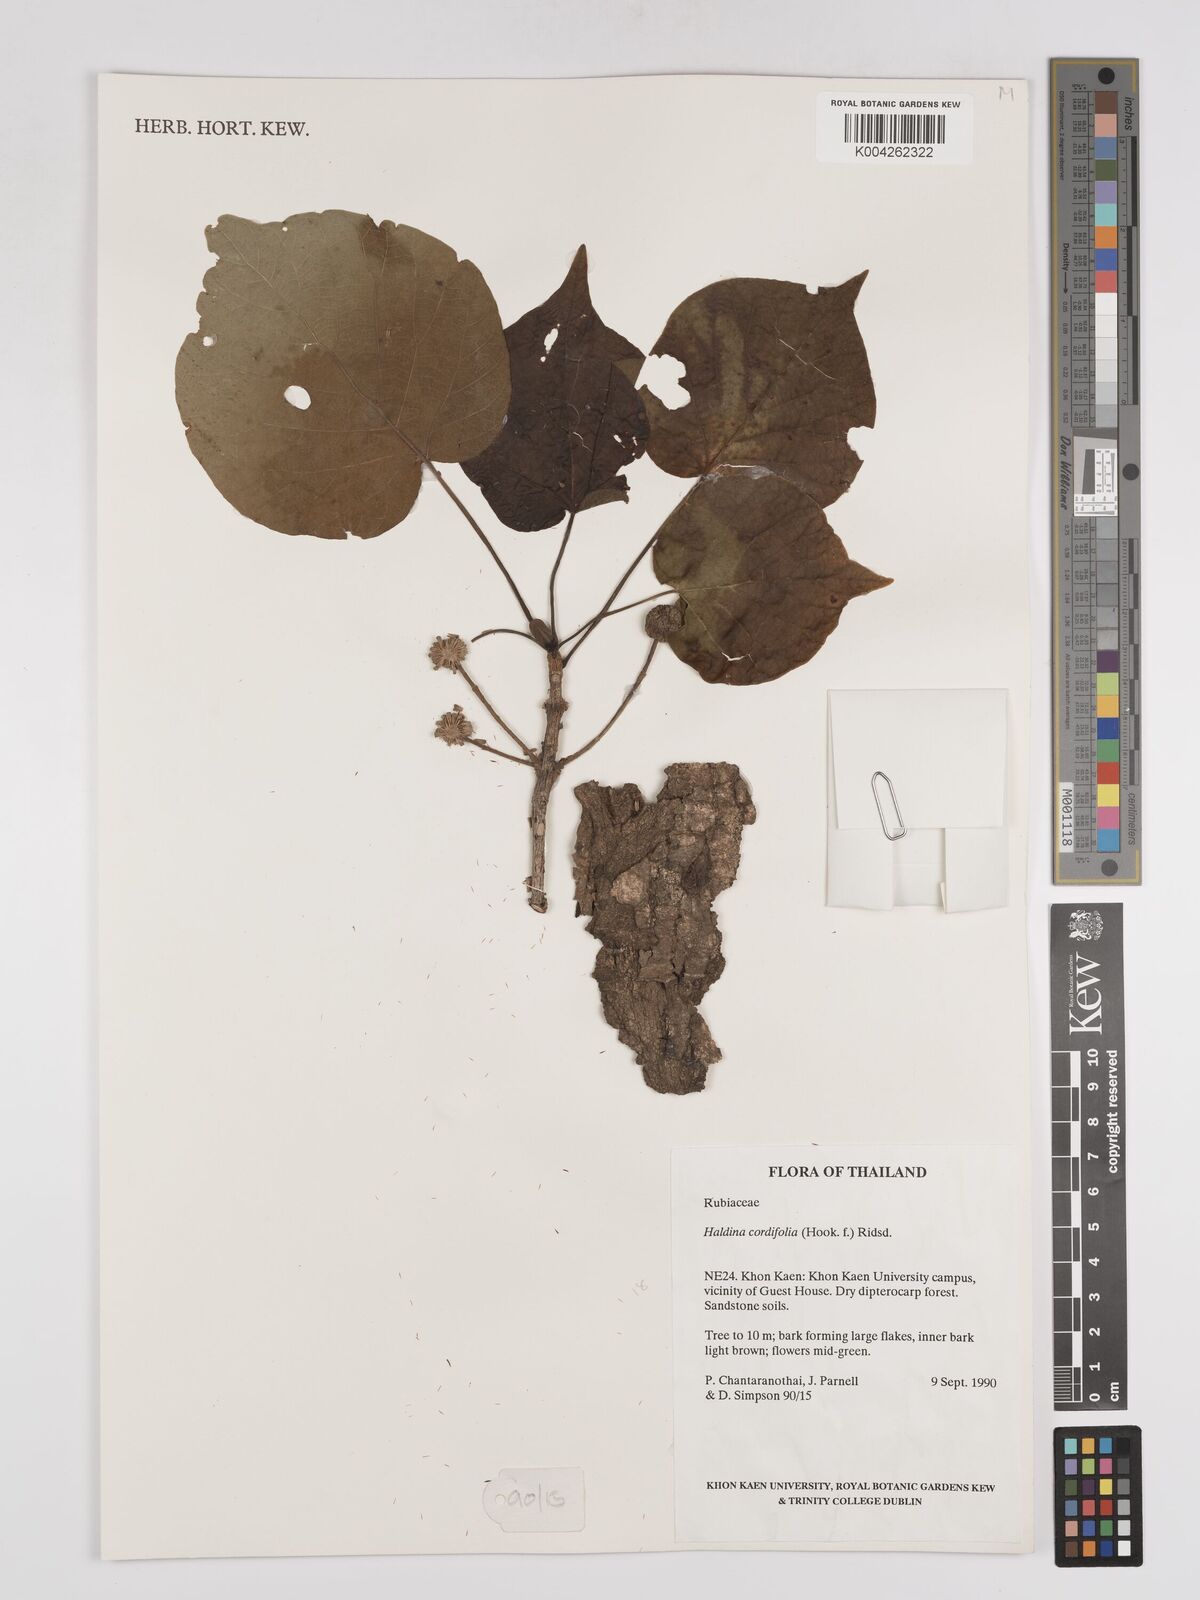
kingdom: Plantae
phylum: Tracheophyta
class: Magnoliopsida
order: Gentianales
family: Rubiaceae
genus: Adina
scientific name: Adina cordifolia
